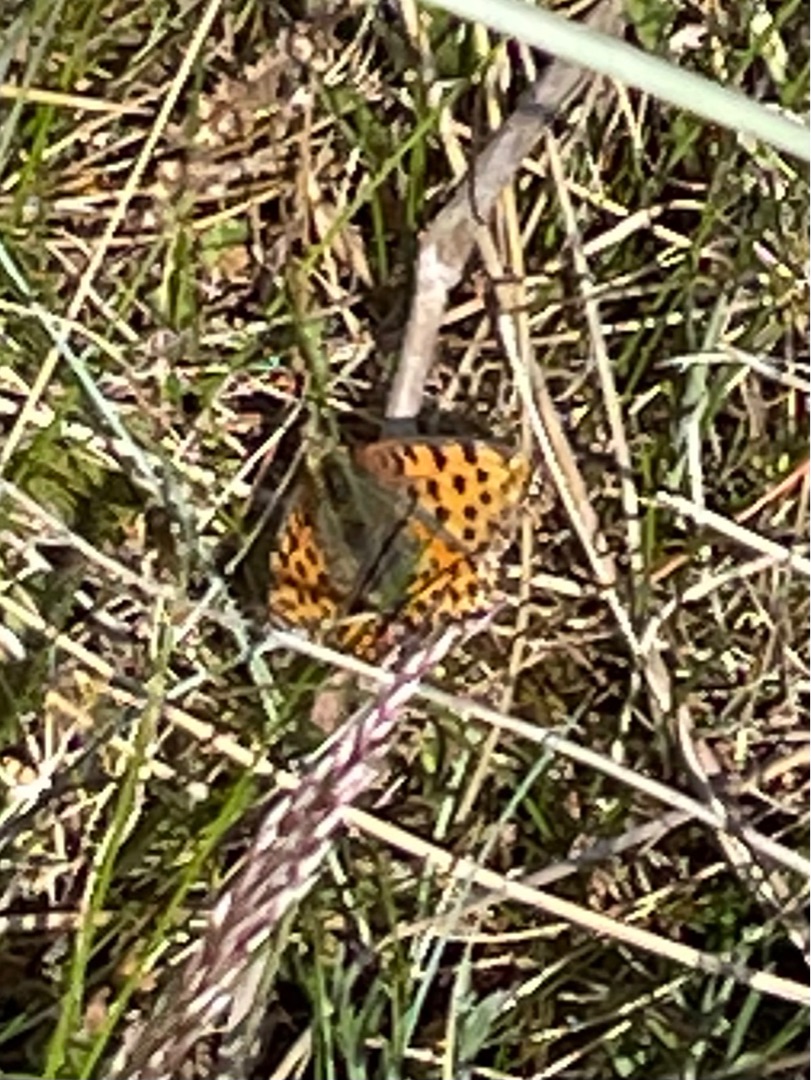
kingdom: Animalia
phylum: Arthropoda
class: Insecta
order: Lepidoptera
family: Nymphalidae
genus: Issoria
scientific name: Issoria lathonia
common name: Storplettet perlemorsommerfugl
